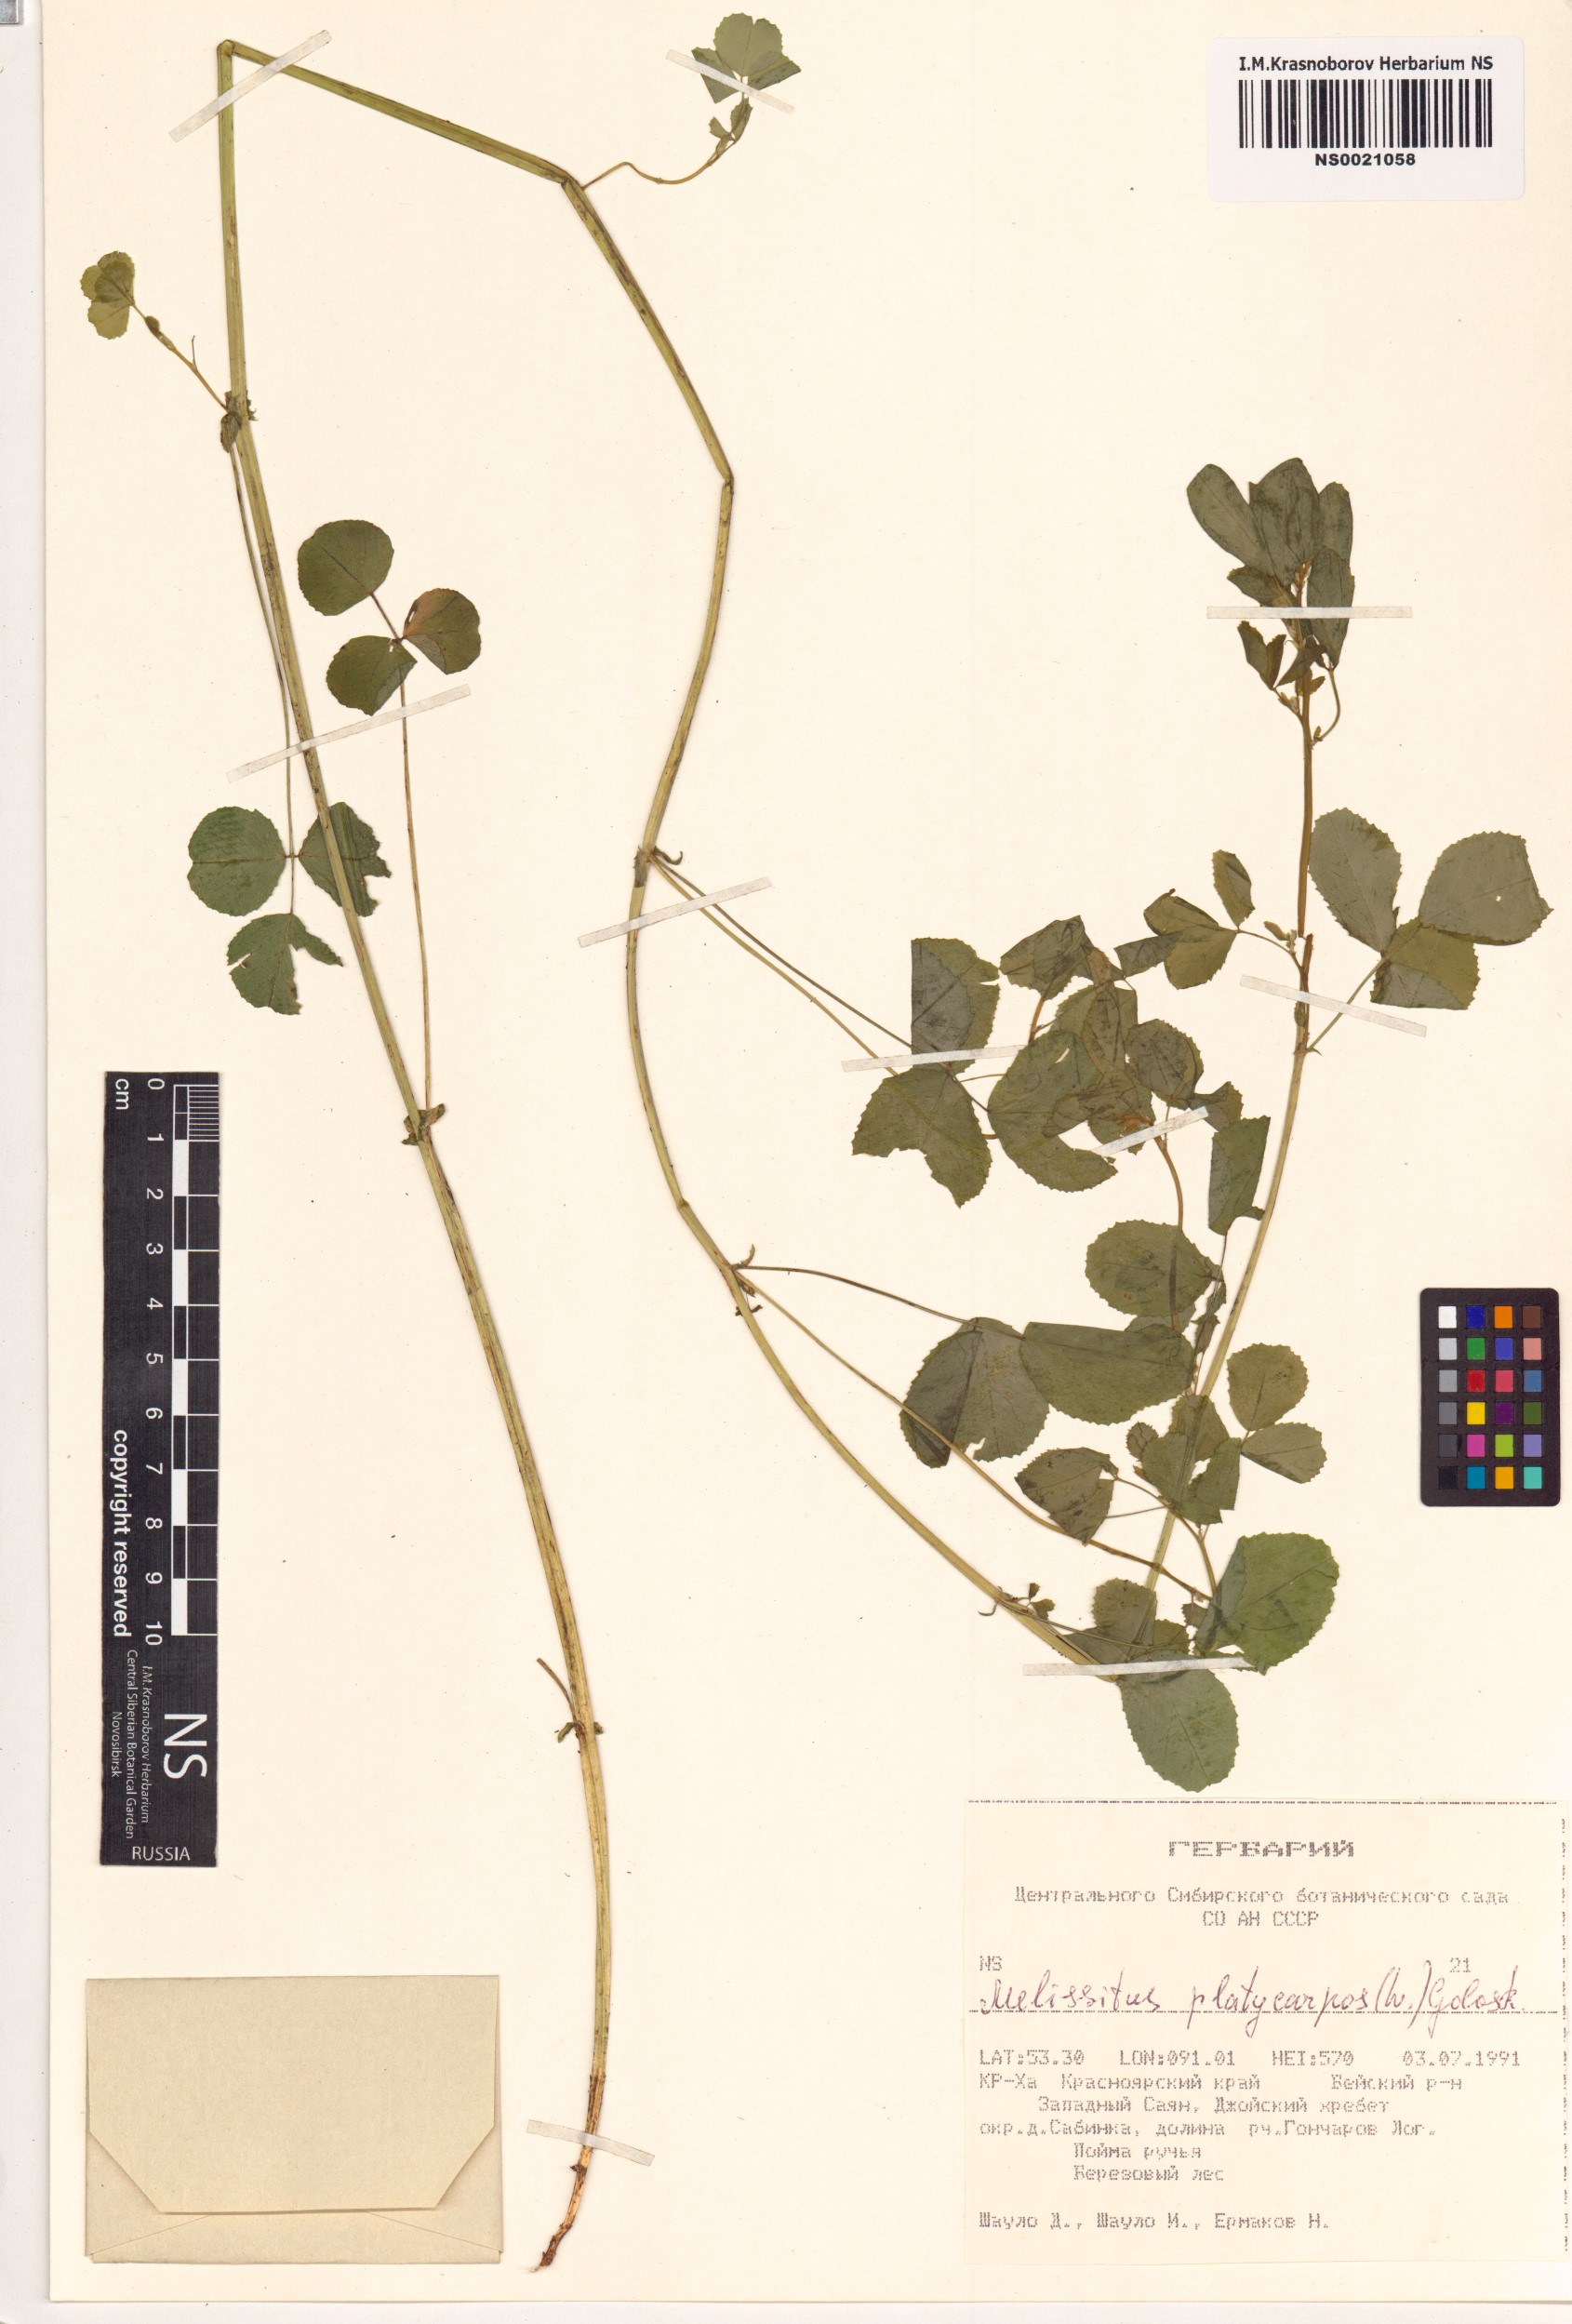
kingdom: Plantae
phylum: Tracheophyta
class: Magnoliopsida
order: Fabales
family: Fabaceae
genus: Medicago
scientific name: Medicago platycarpos
